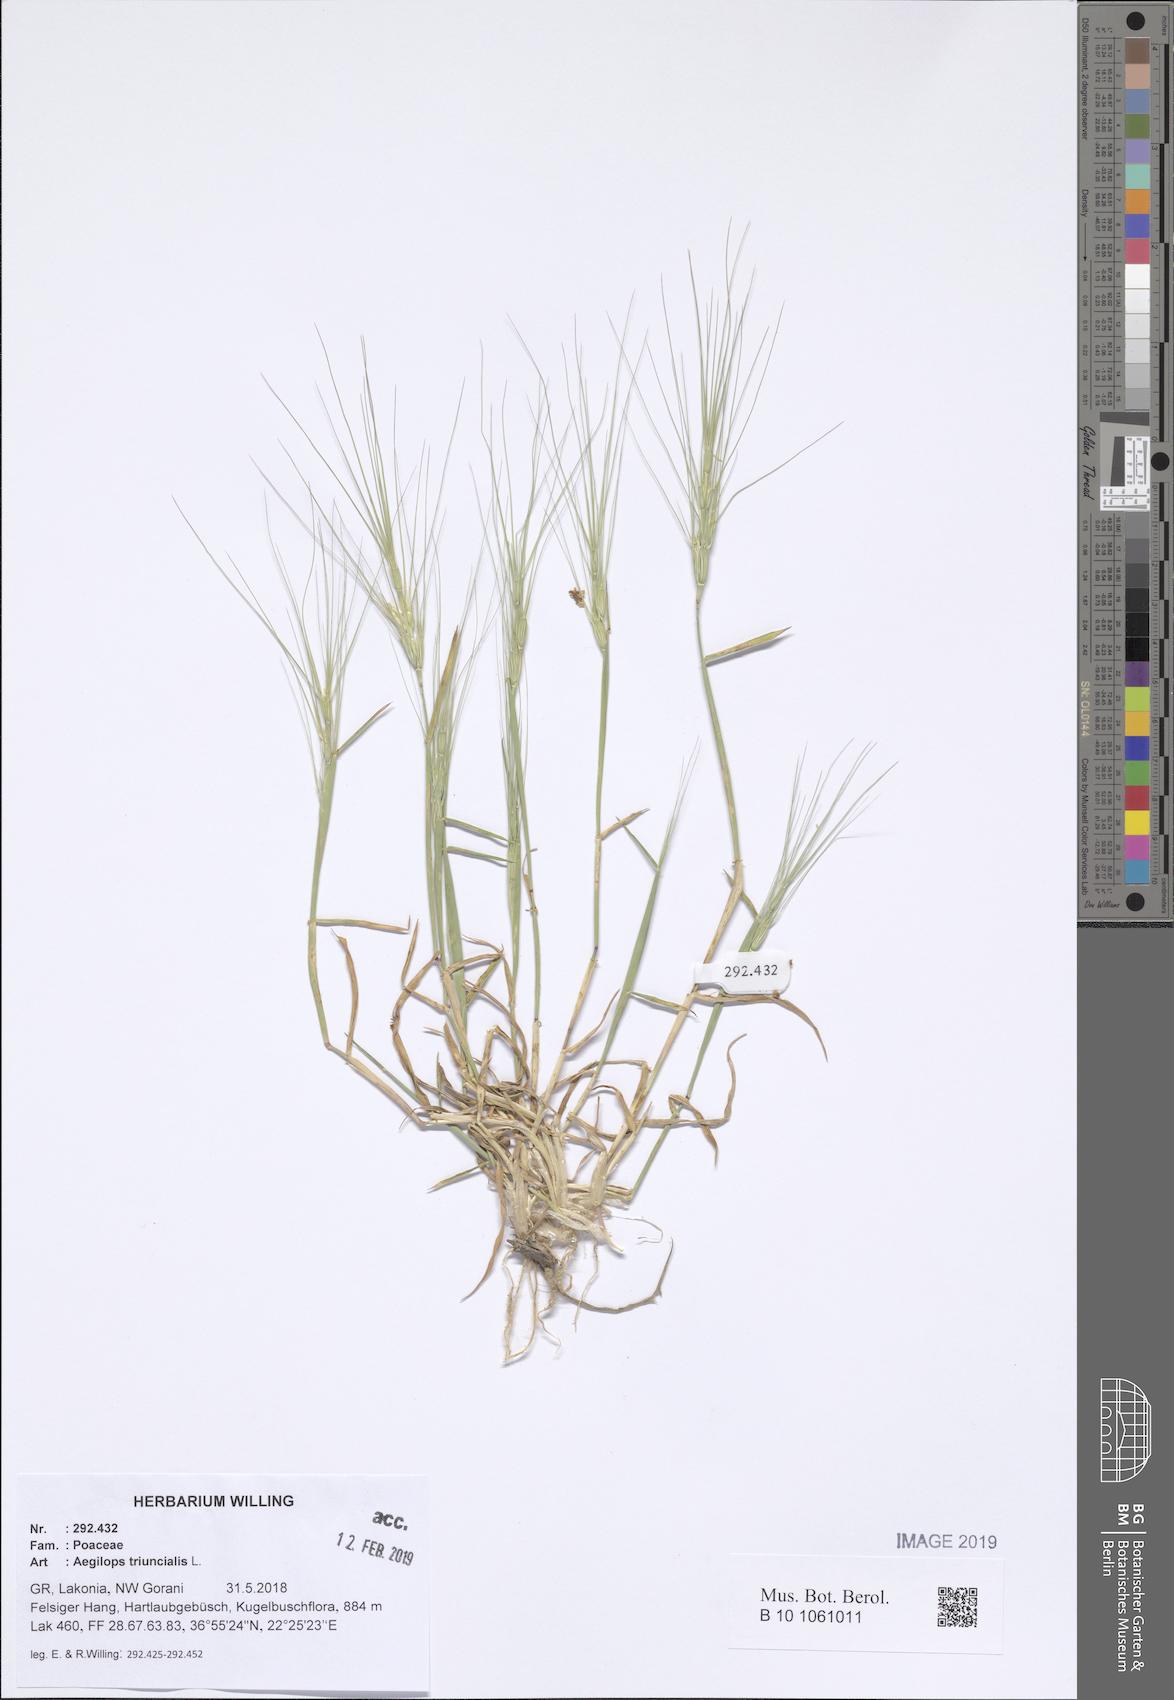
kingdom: Plantae
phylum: Tracheophyta
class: Liliopsida
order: Poales
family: Poaceae
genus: Aegilops
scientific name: Aegilops triuncialis
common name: Barb goat grass
